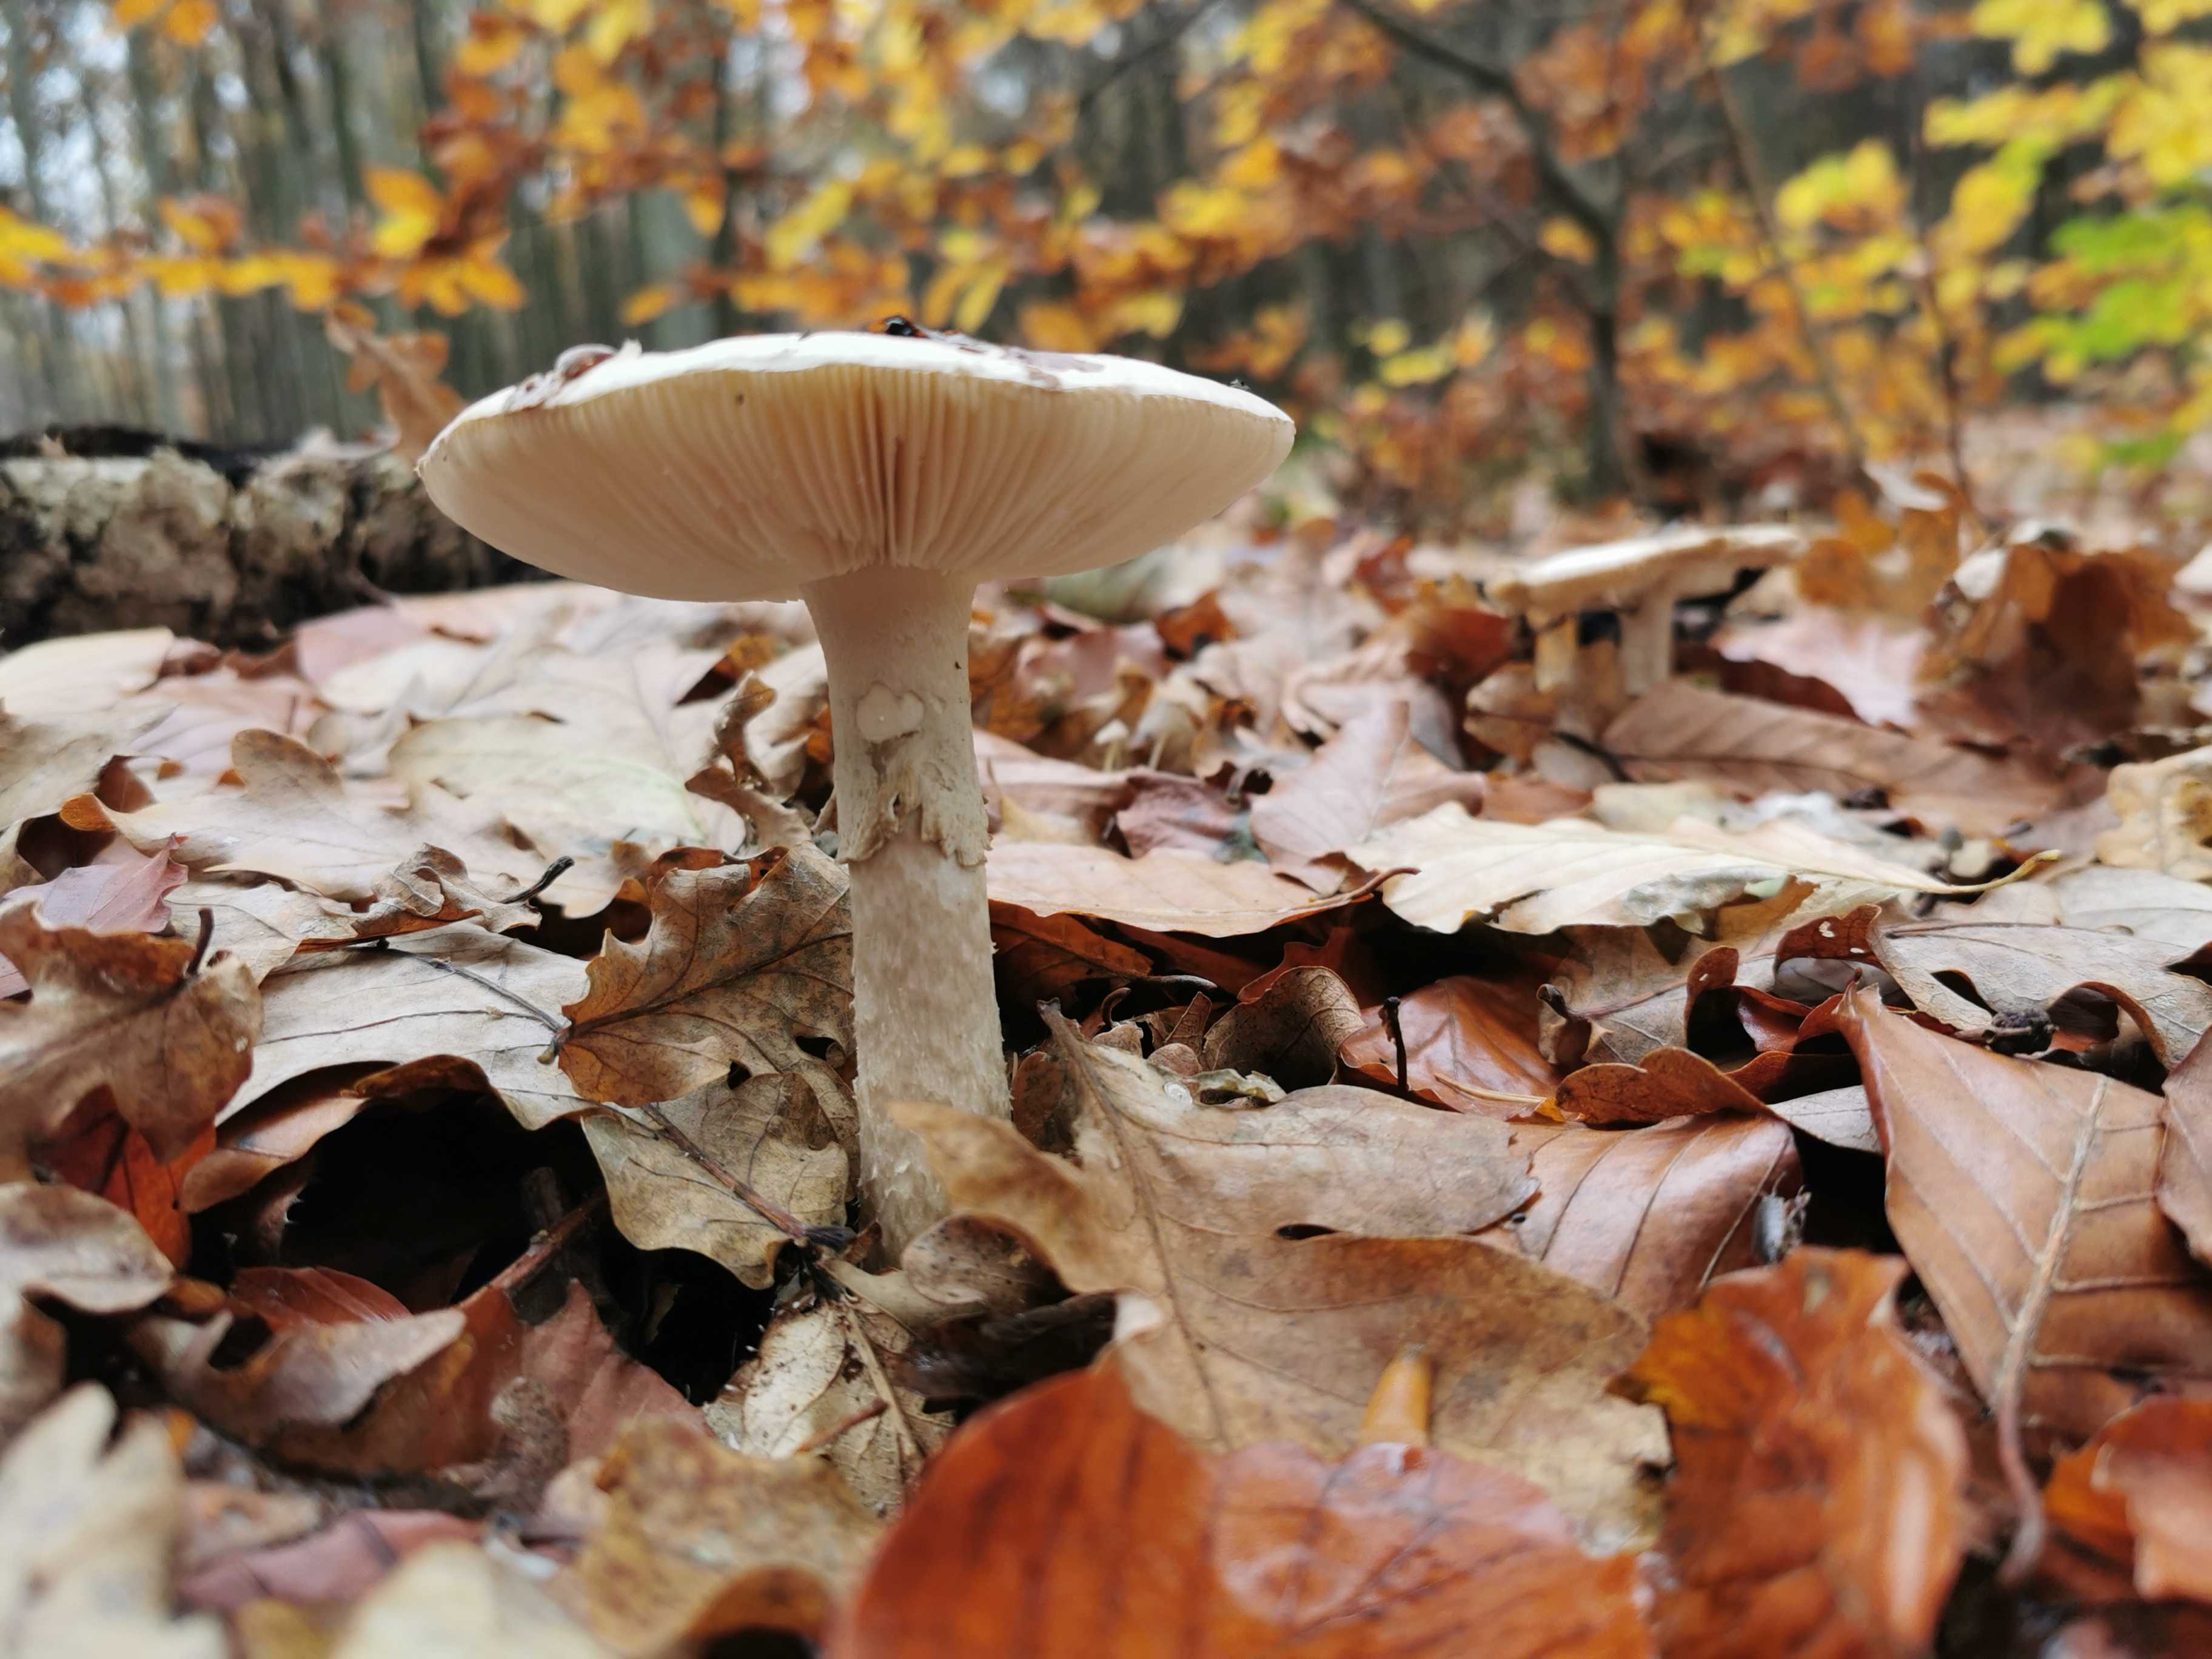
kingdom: Fungi
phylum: Basidiomycota
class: Agaricomycetes
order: Agaricales
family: Amanitaceae
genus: Amanita
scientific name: Amanita phalloides
